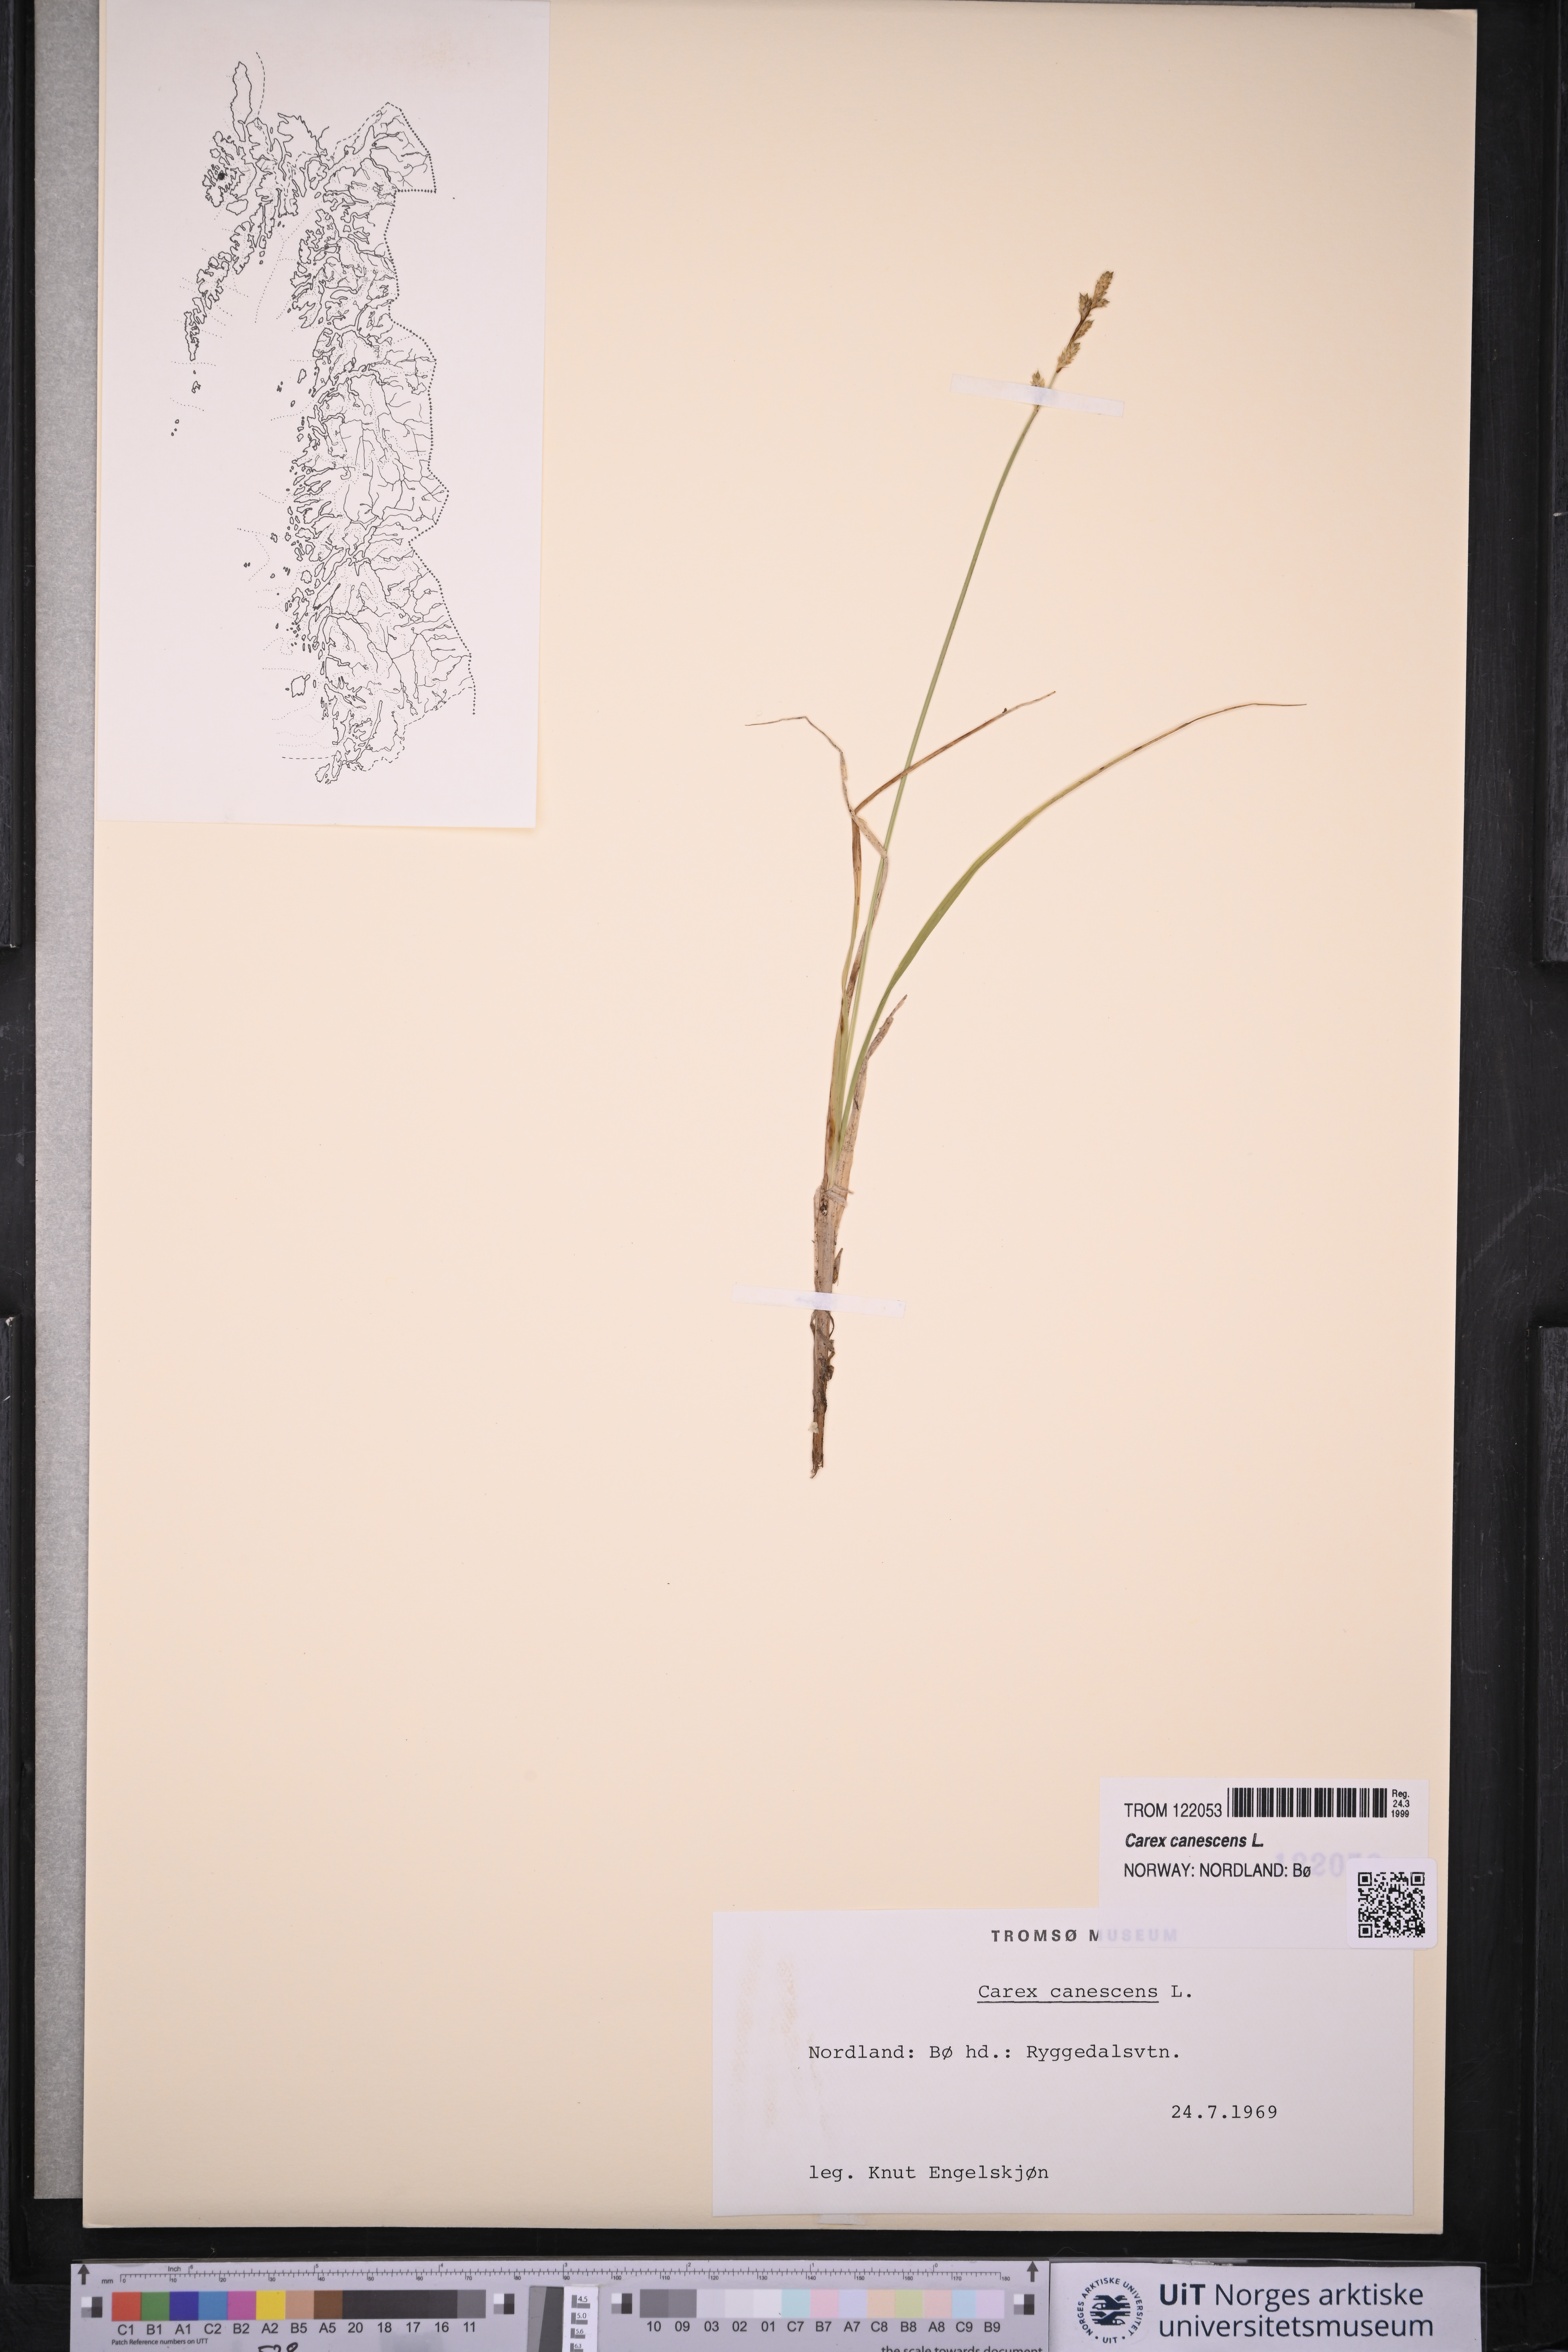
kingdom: Plantae
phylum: Tracheophyta
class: Liliopsida
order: Poales
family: Cyperaceae
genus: Carex
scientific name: Carex canescens
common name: White sedge
